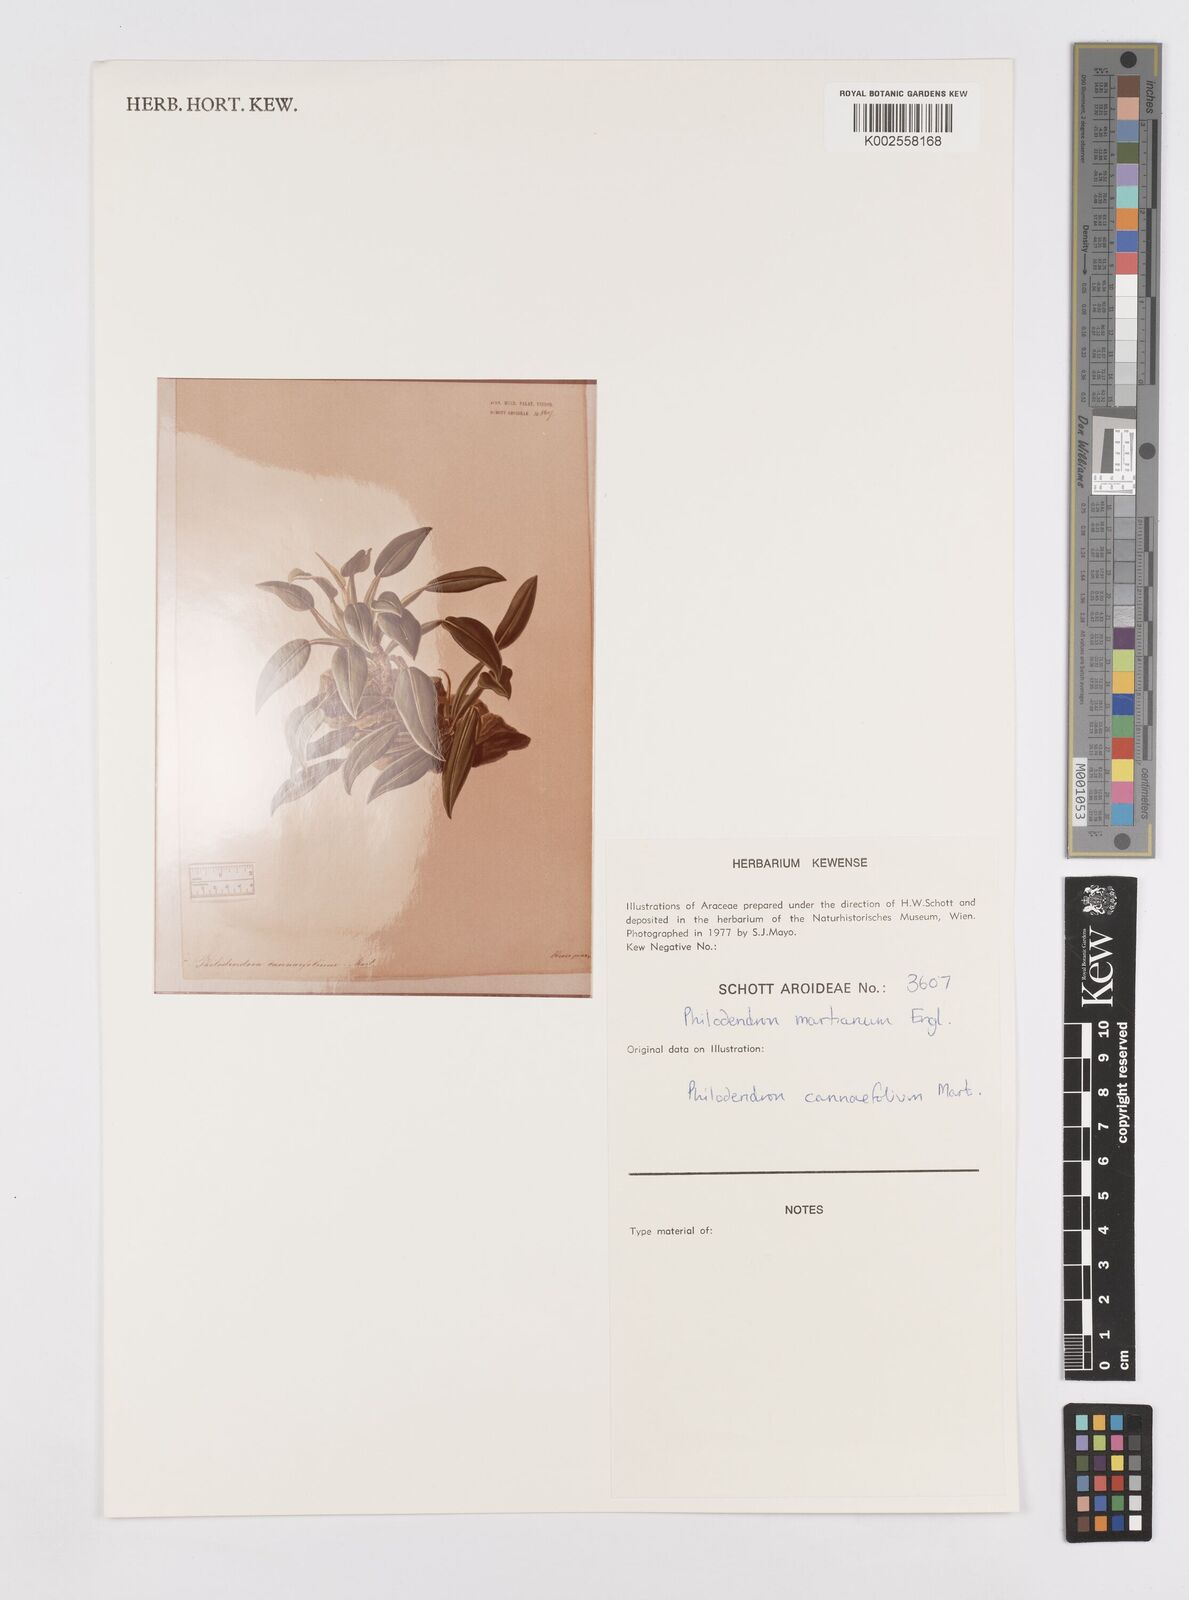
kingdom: Plantae
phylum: Tracheophyta
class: Liliopsida
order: Alismatales
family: Araceae
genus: Philodendron
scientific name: Philodendron martianum
